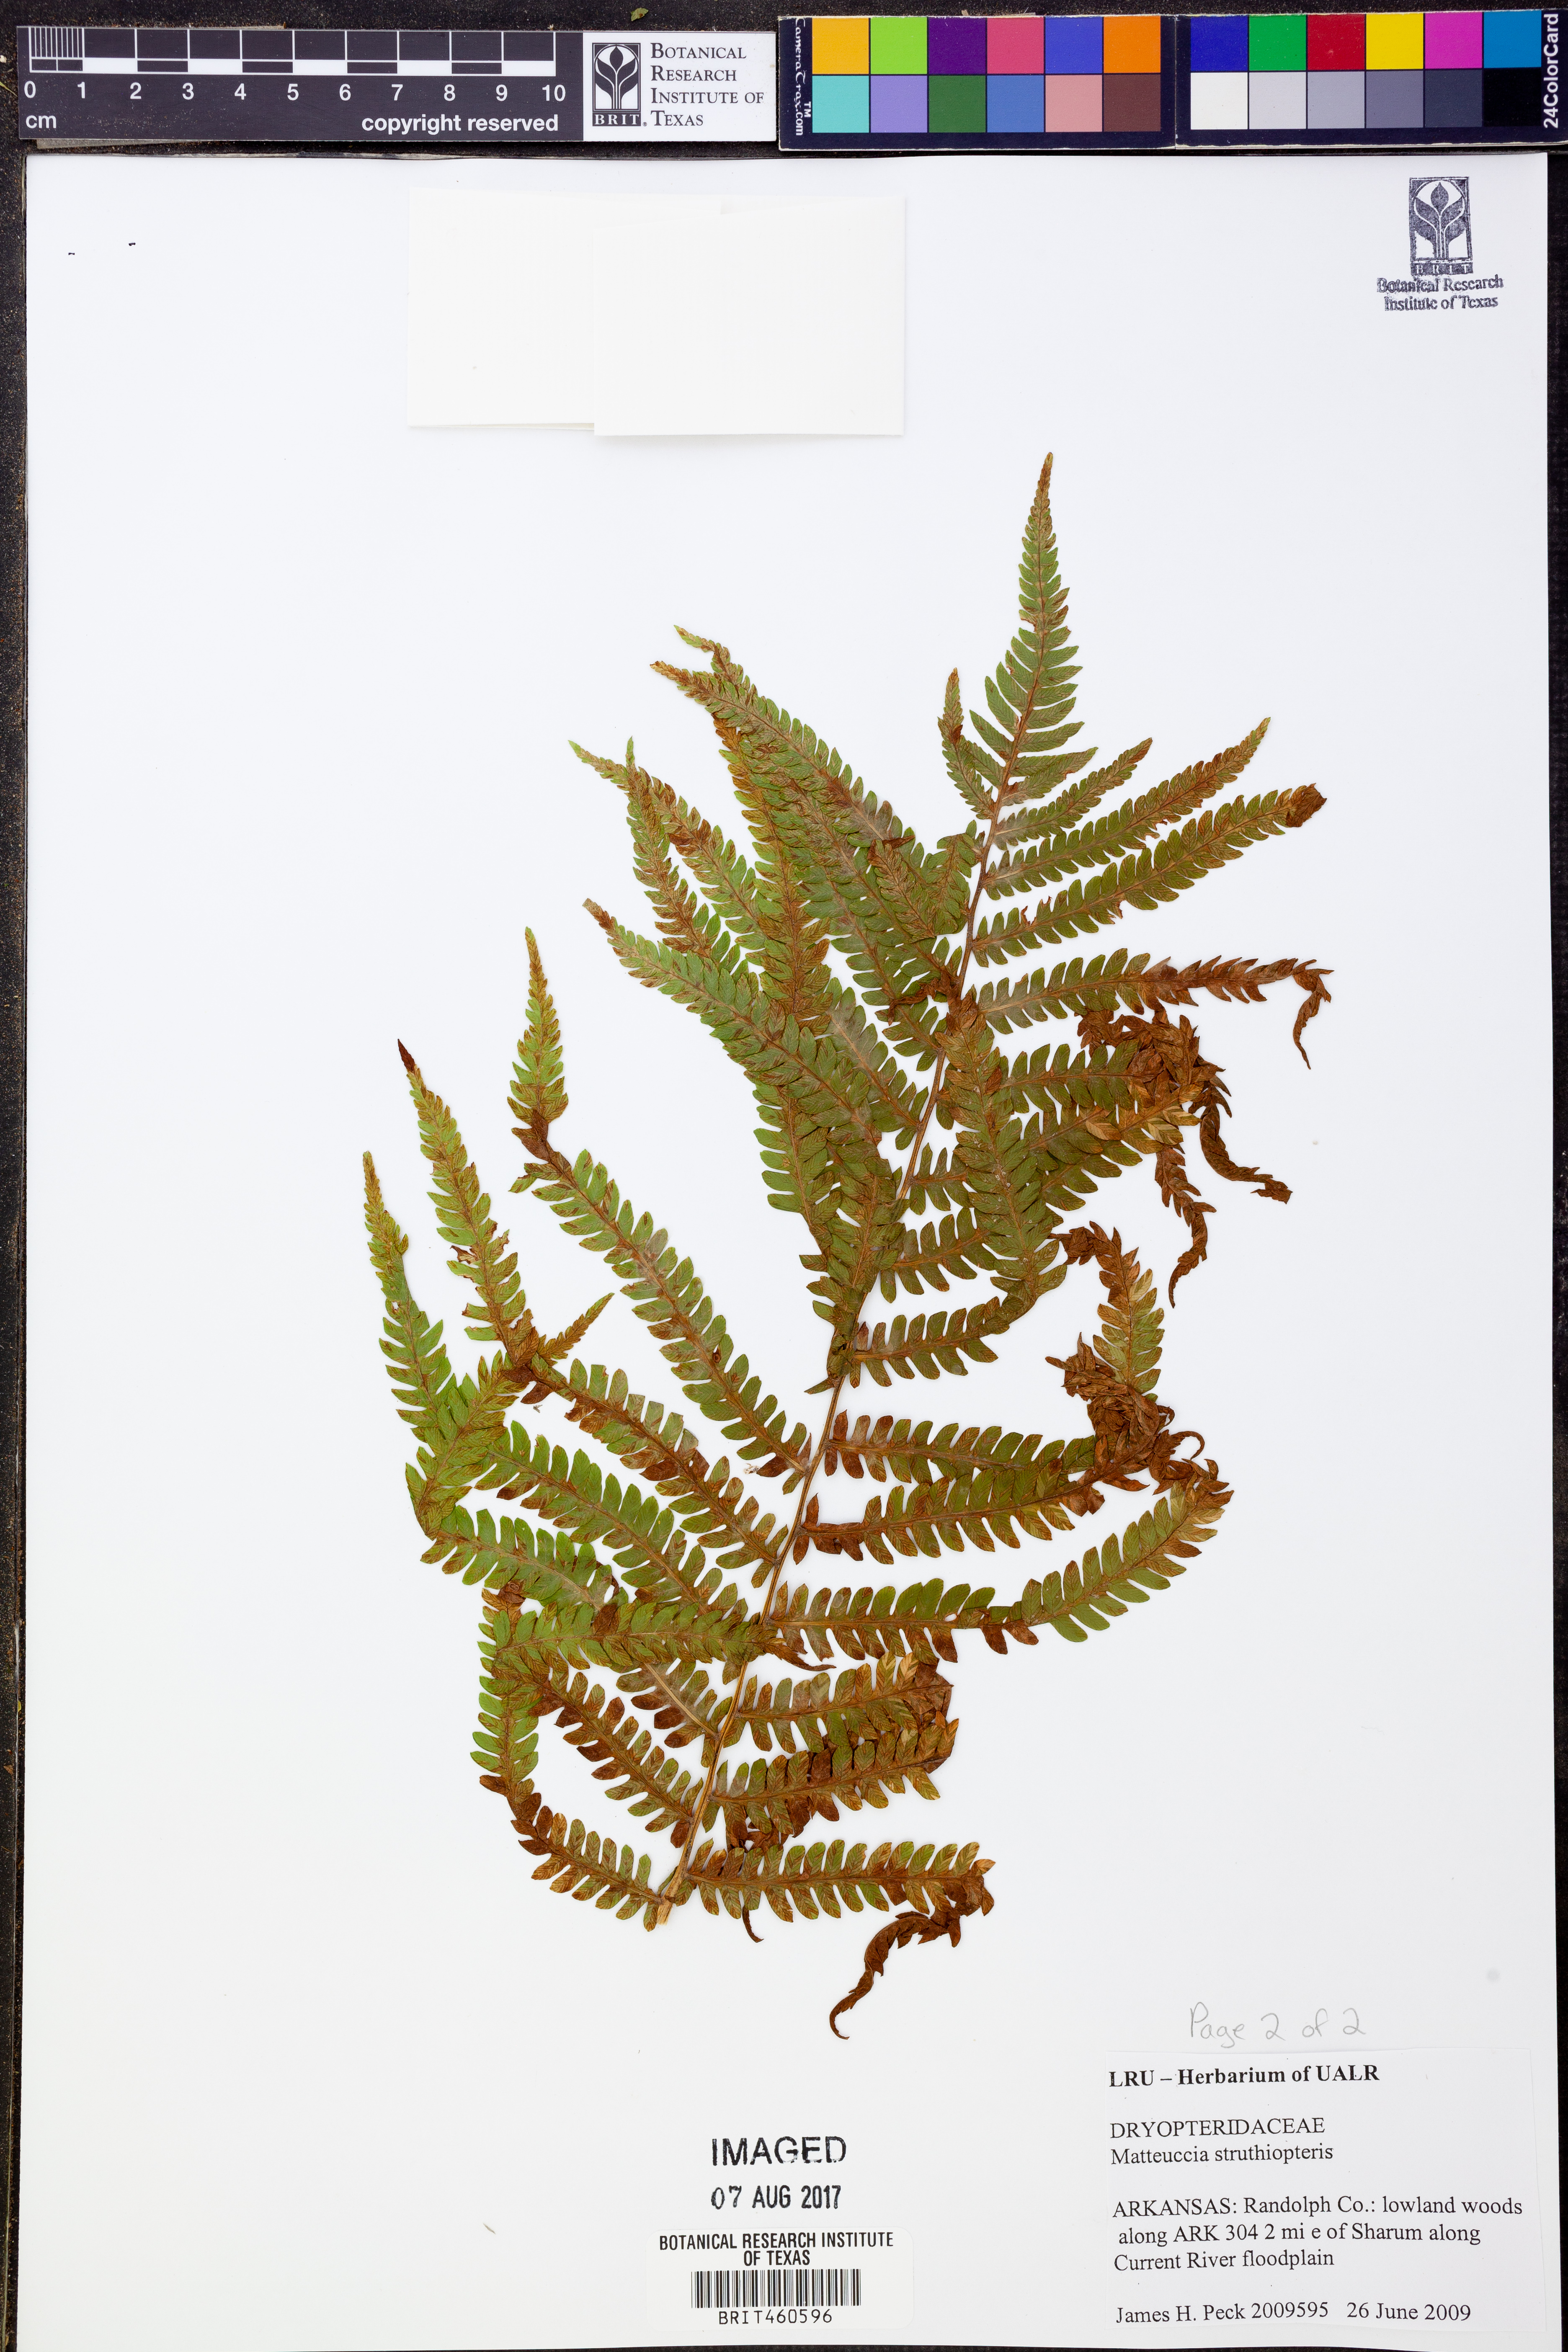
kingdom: Plantae
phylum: Tracheophyta
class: Polypodiopsida
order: Polypodiales
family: Onocleaceae
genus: Matteuccia
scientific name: Matteuccia struthiopteris
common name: Ostrich fern
